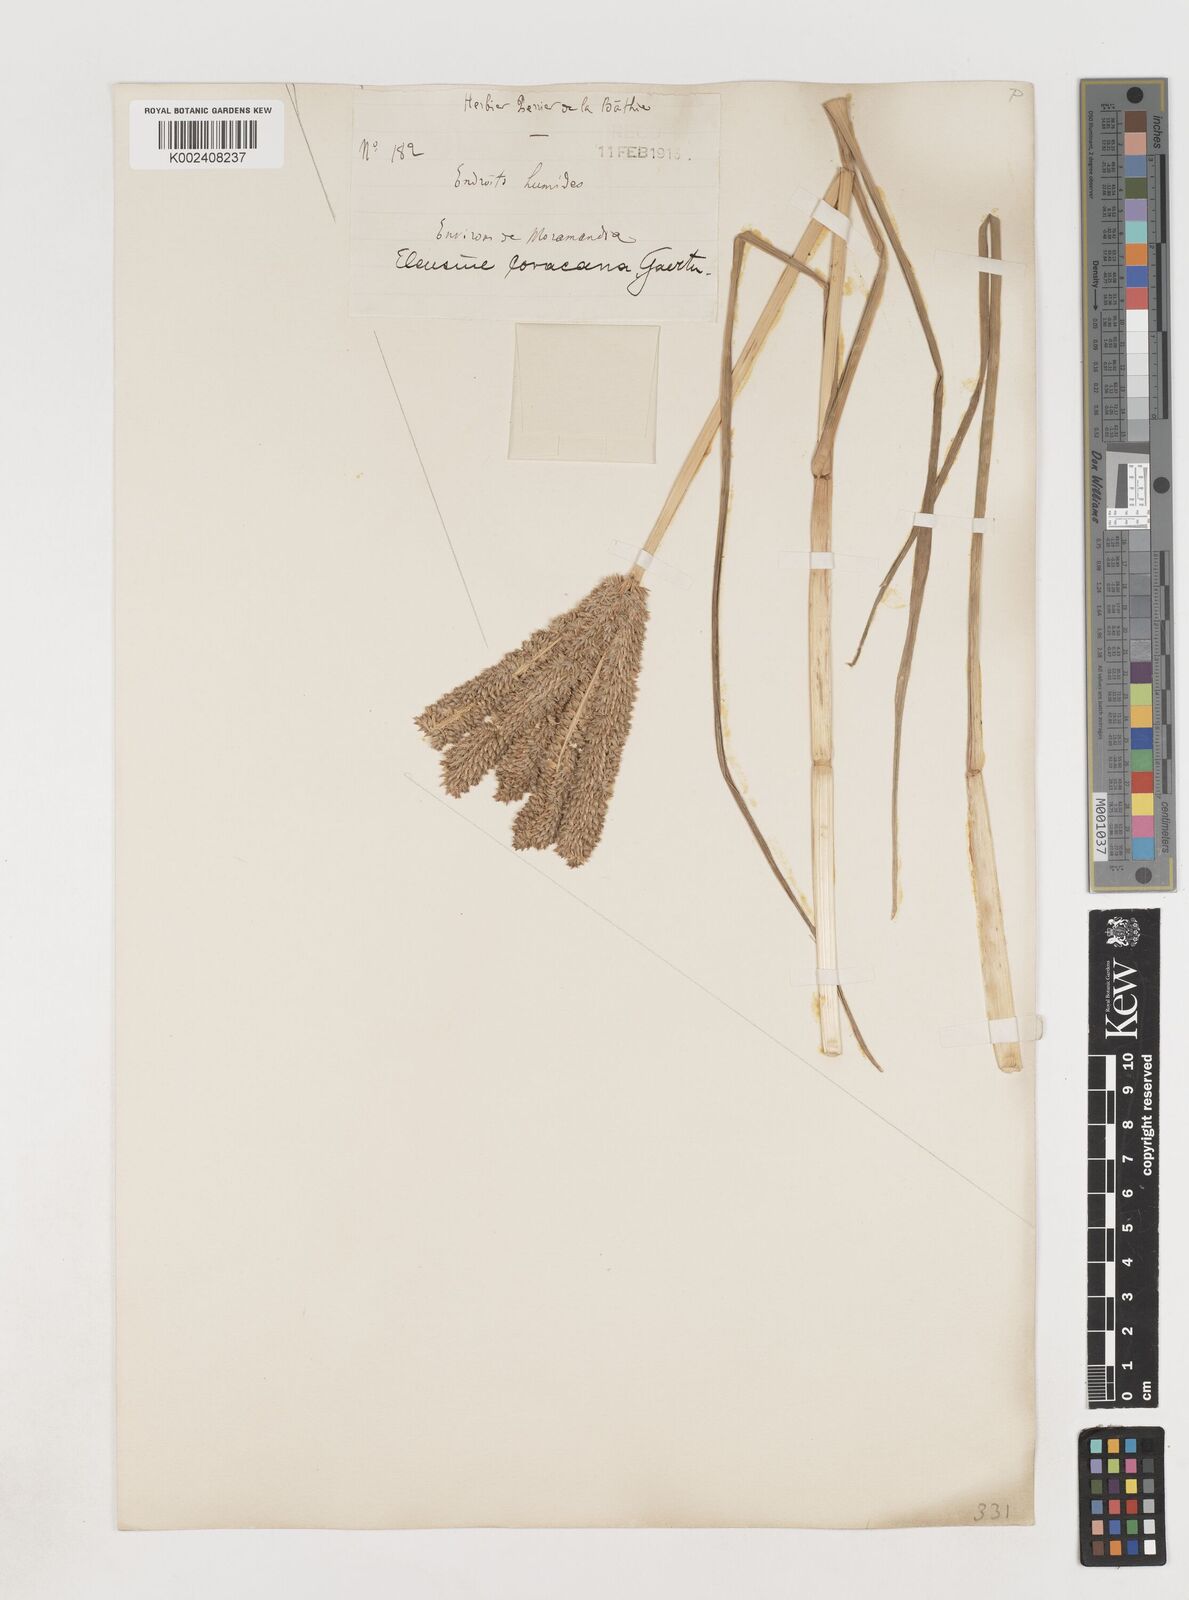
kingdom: Plantae
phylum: Tracheophyta
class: Liliopsida
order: Poales
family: Poaceae
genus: Eleusine
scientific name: Eleusine coracana
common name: Finger millet
